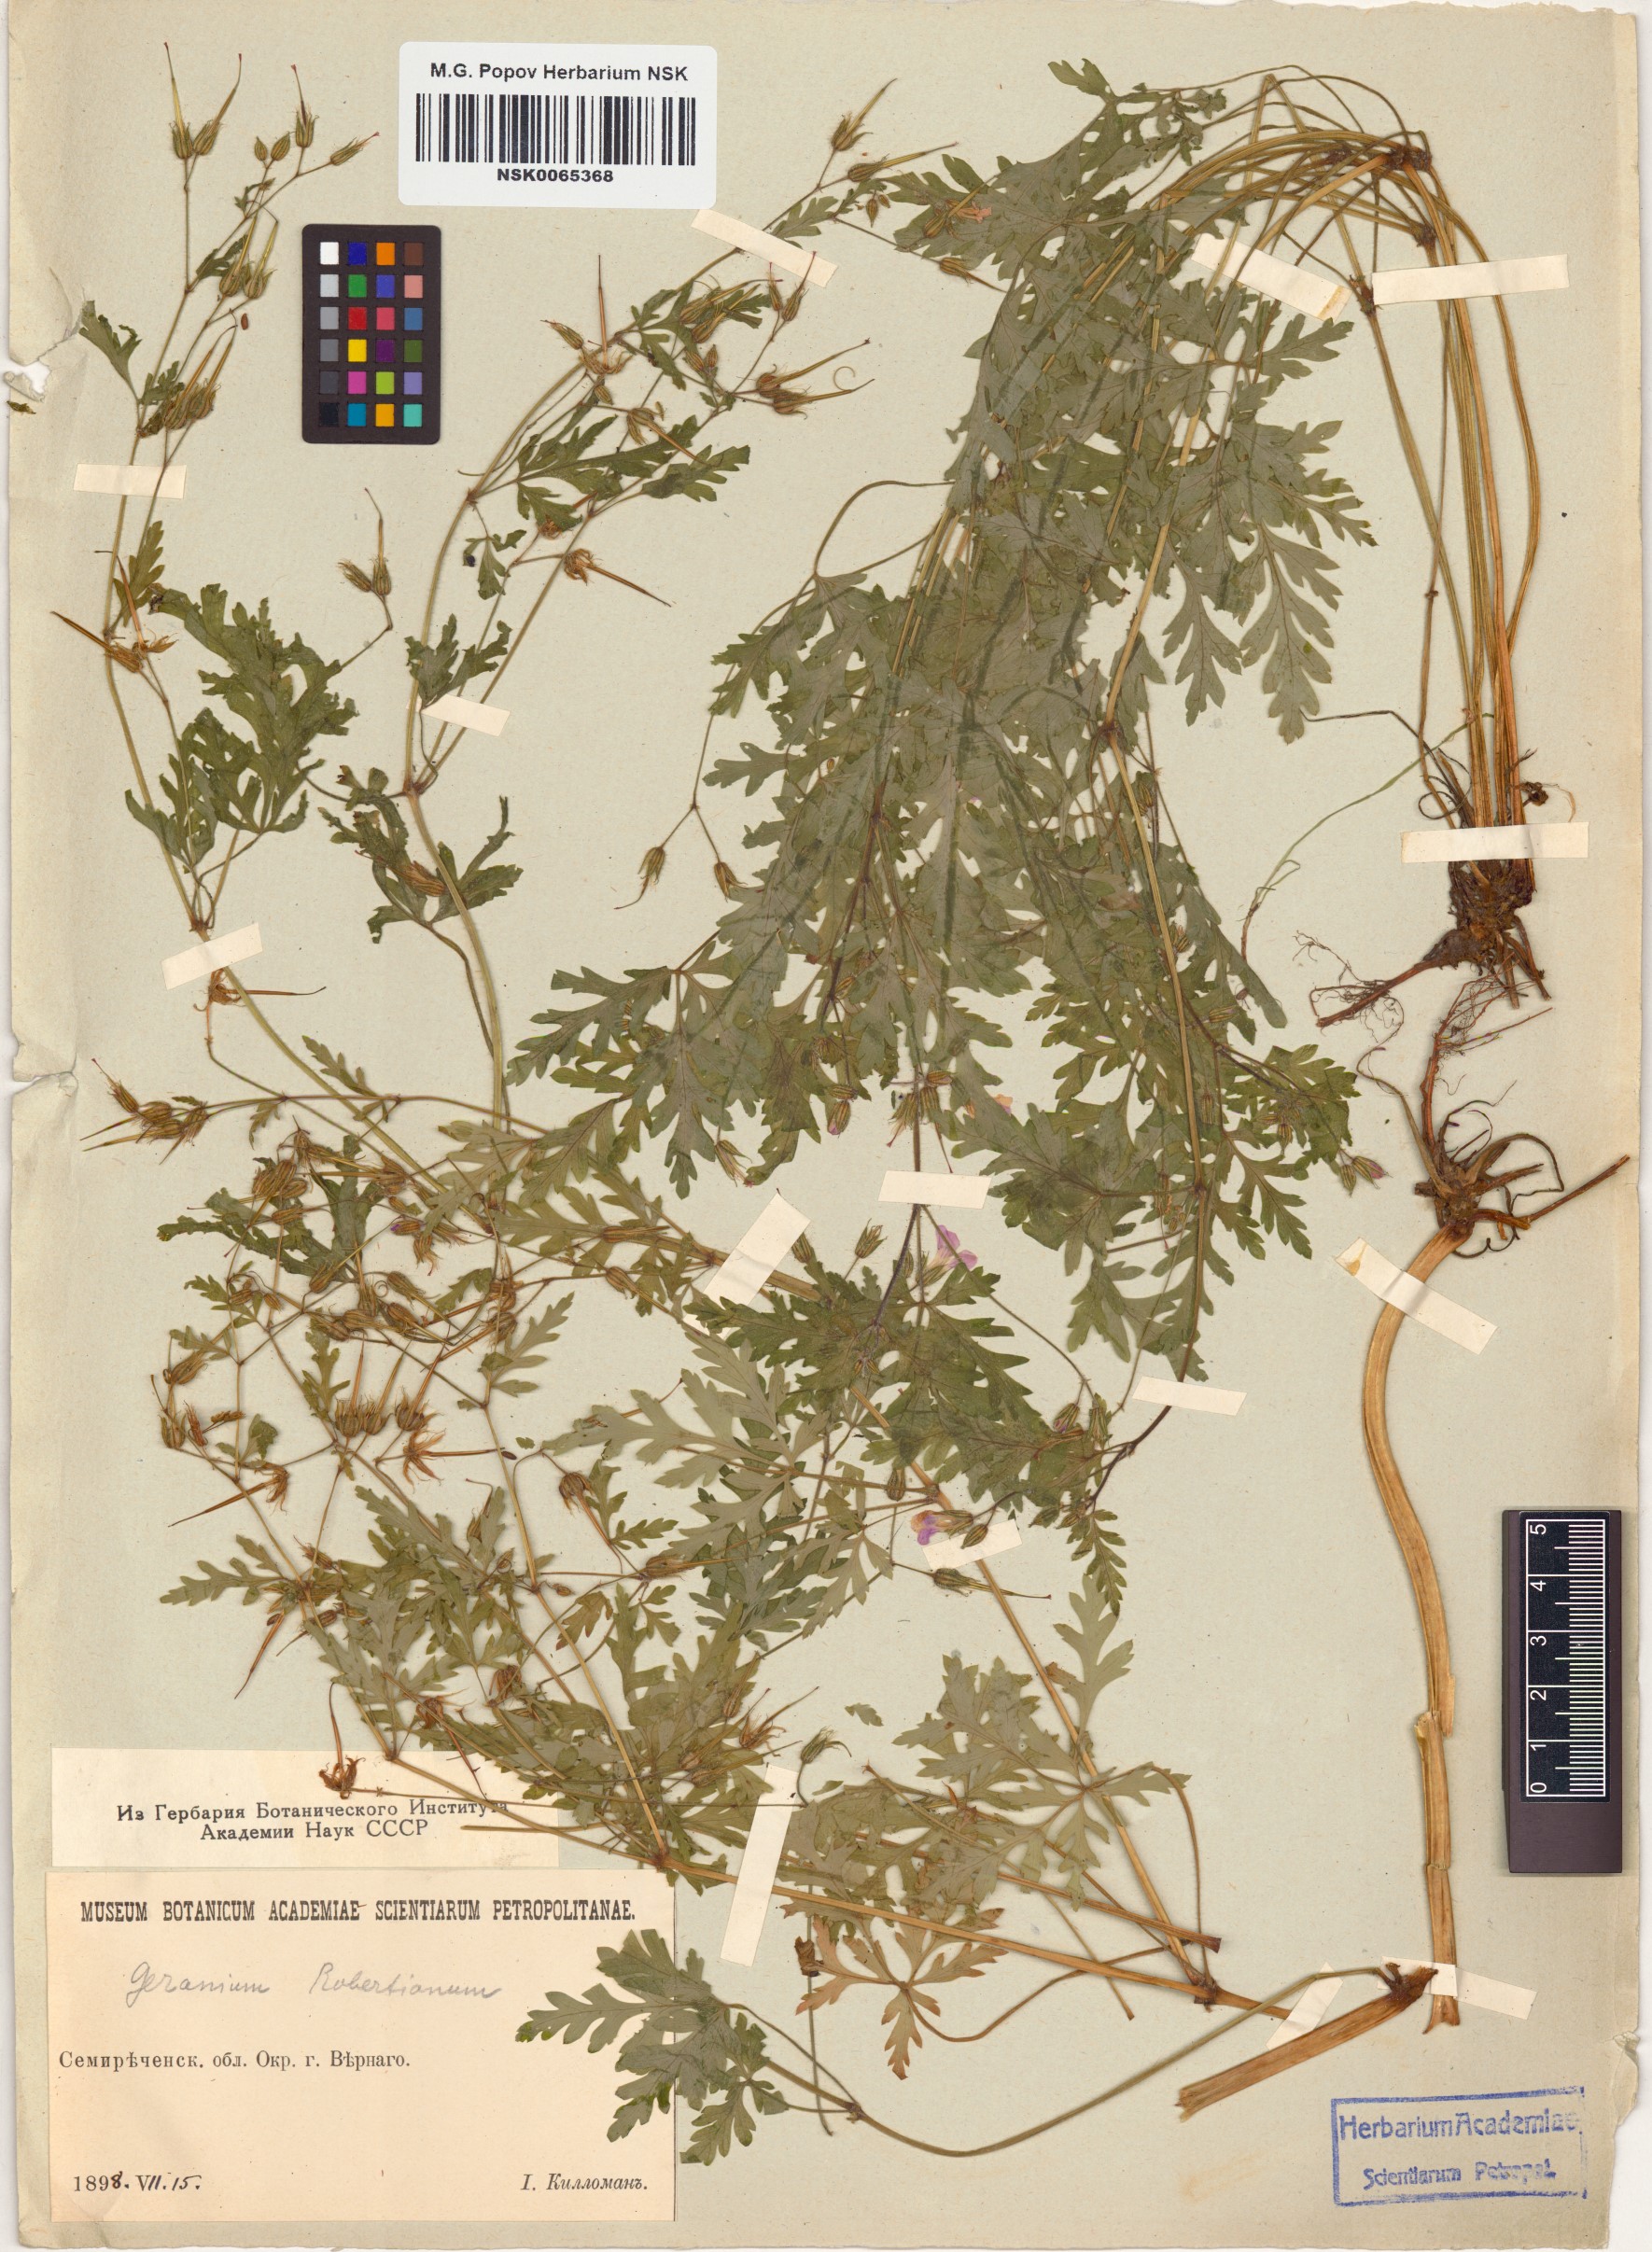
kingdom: Plantae
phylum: Tracheophyta
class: Magnoliopsida
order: Geraniales
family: Geraniaceae
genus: Geranium
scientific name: Geranium robertianum
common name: Herb-robert
